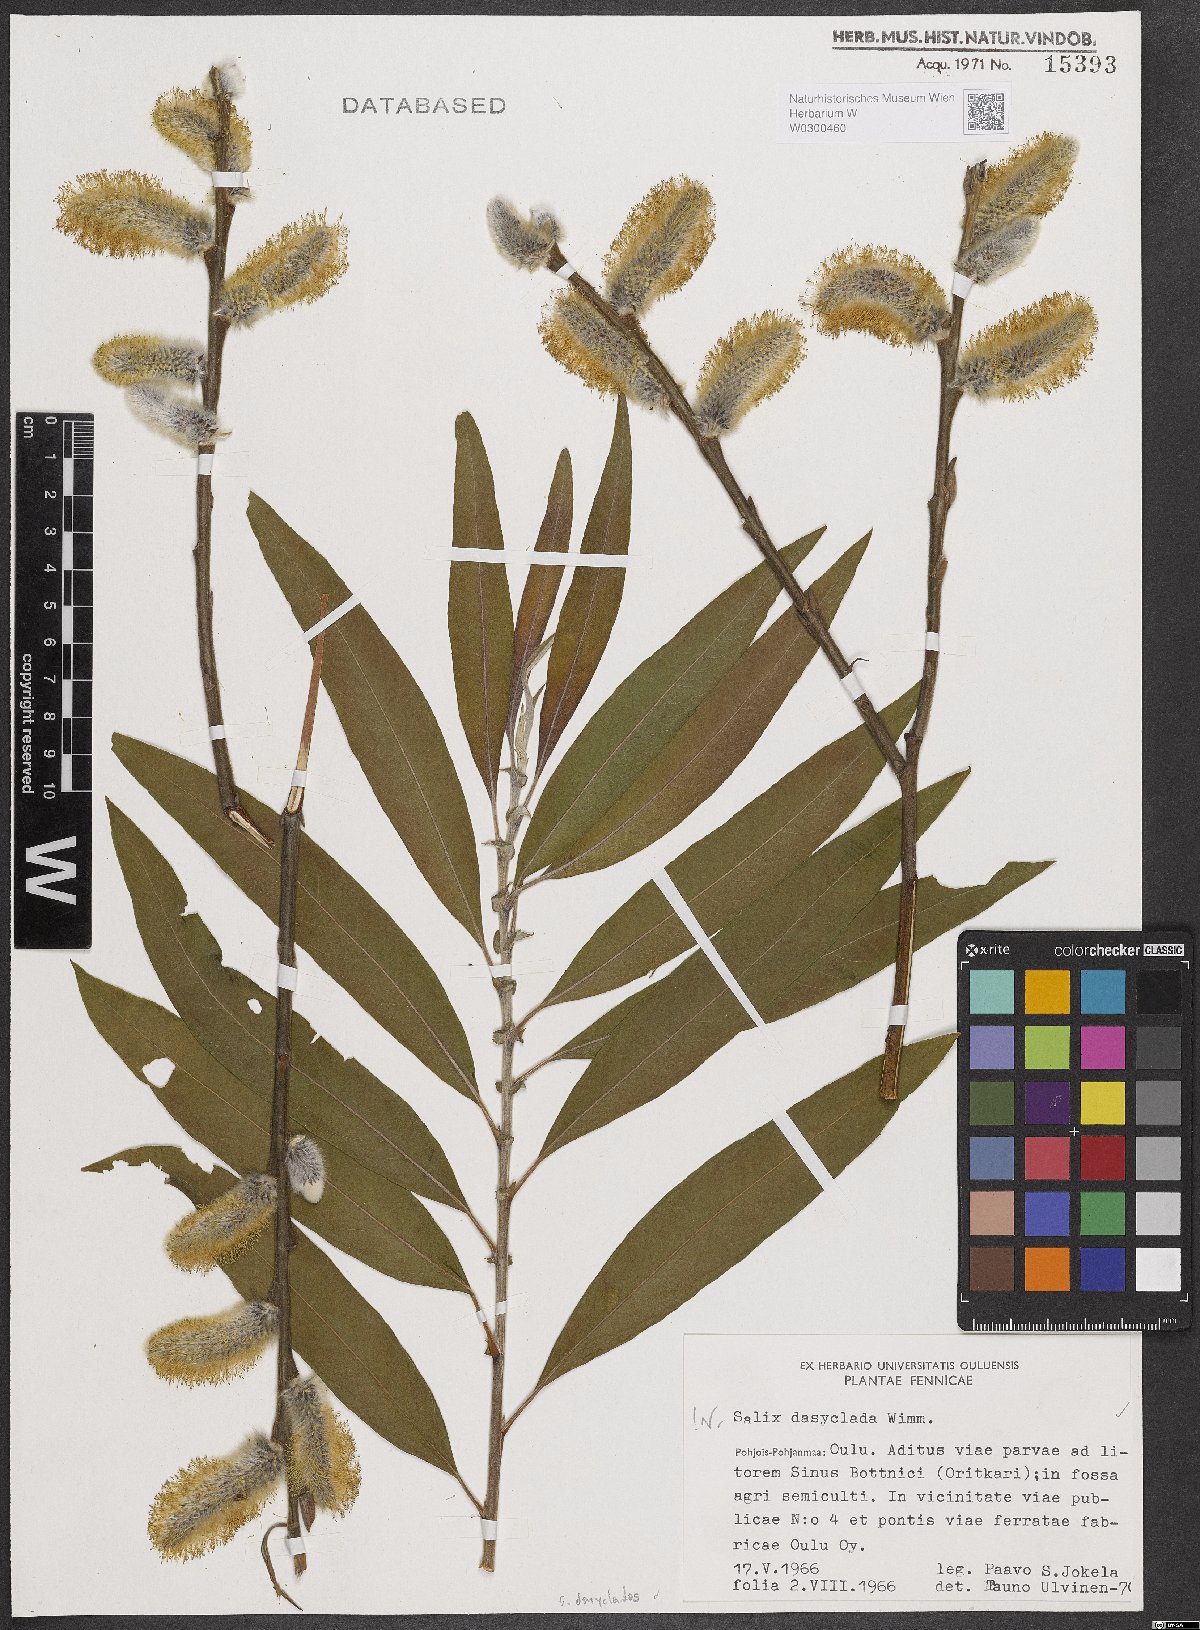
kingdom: Plantae
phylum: Tracheophyta
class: Magnoliopsida
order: Malpighiales
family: Salicaceae
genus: Salix
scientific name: Salix gmelinii
